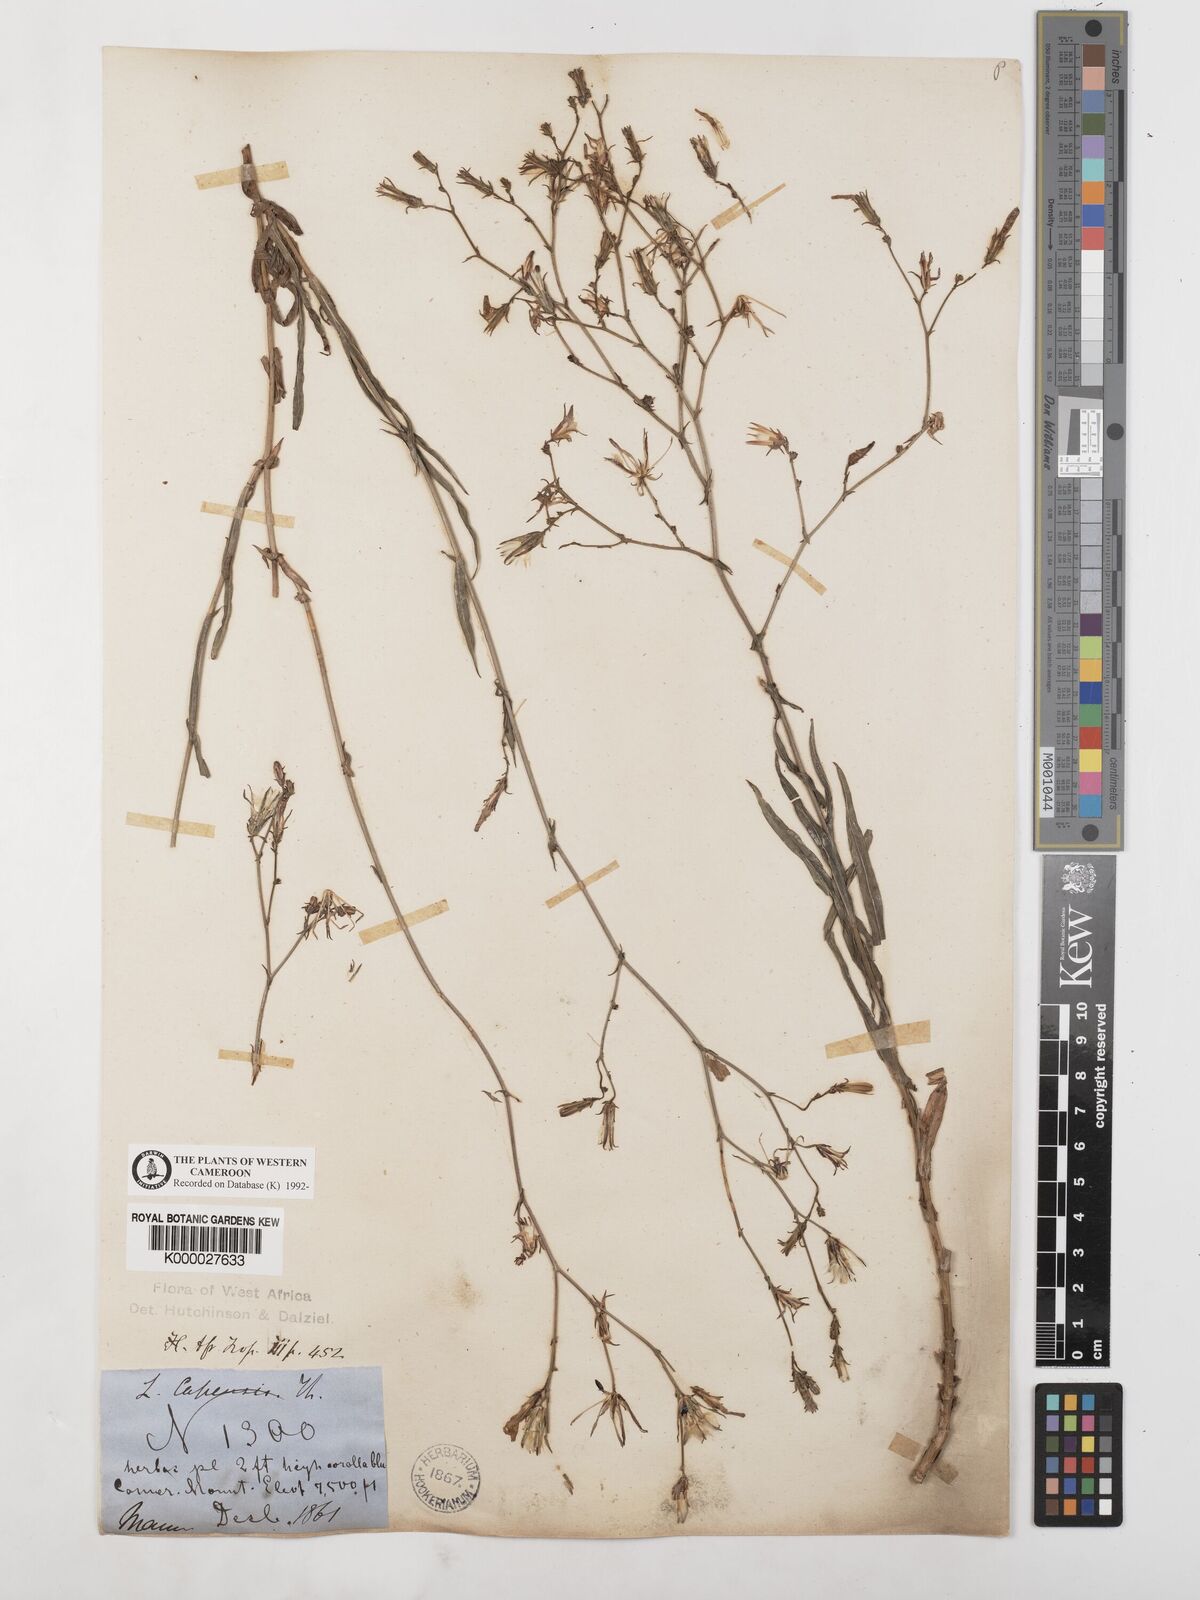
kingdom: Plantae
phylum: Tracheophyta
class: Magnoliopsida
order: Asterales
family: Asteraceae
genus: Lactuca
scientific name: Lactuca inermis
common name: Wild lettuce
